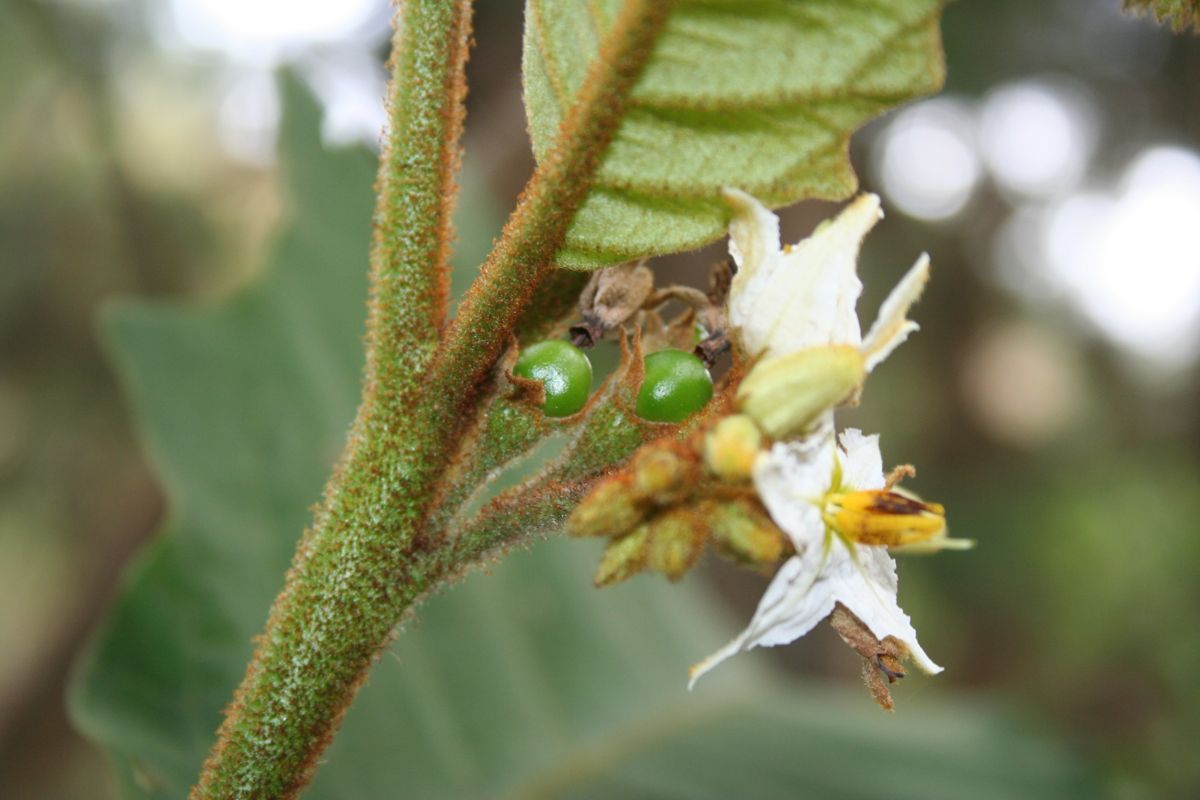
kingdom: Plantae
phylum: Tracheophyta
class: Magnoliopsida
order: Solanales
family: Solanaceae
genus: Solanum
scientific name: Solanum chrysotrichum
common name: Nightshade
